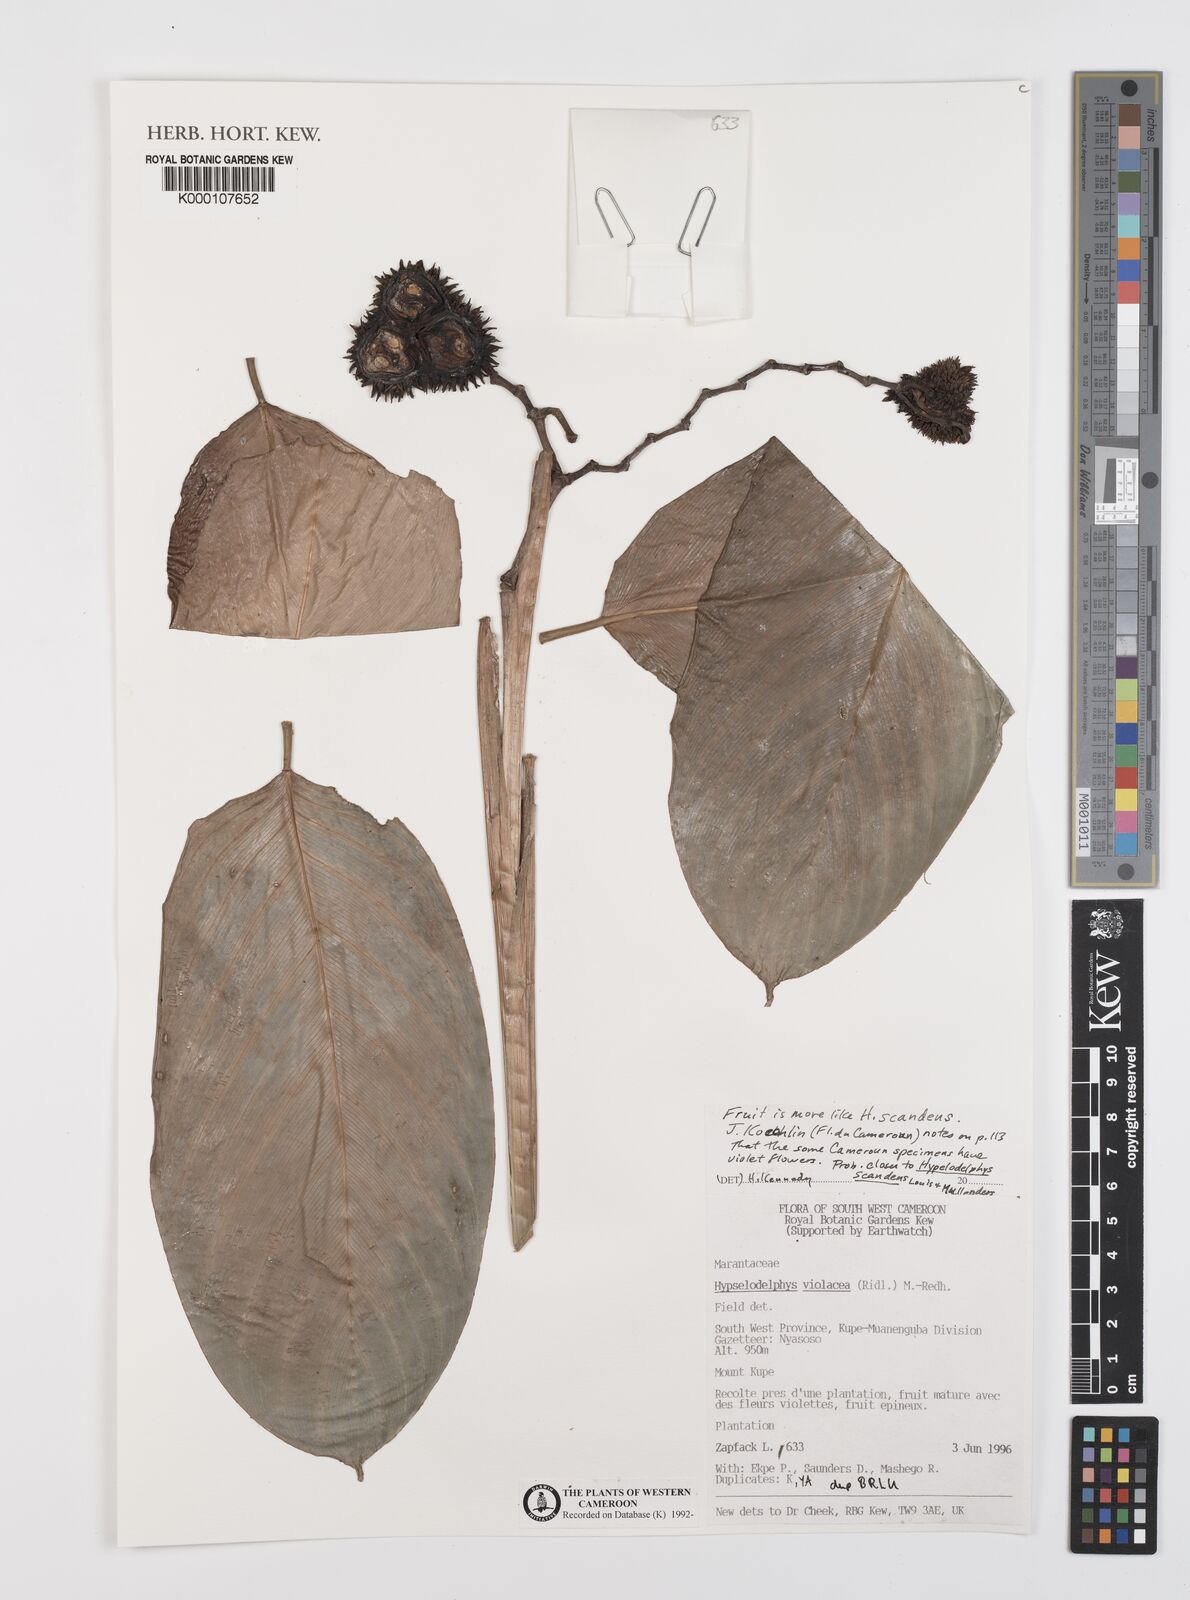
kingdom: Plantae
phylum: Tracheophyta
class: Liliopsida
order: Zingiberales
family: Marantaceae
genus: Hypselodelphys
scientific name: Hypselodelphys scandens
